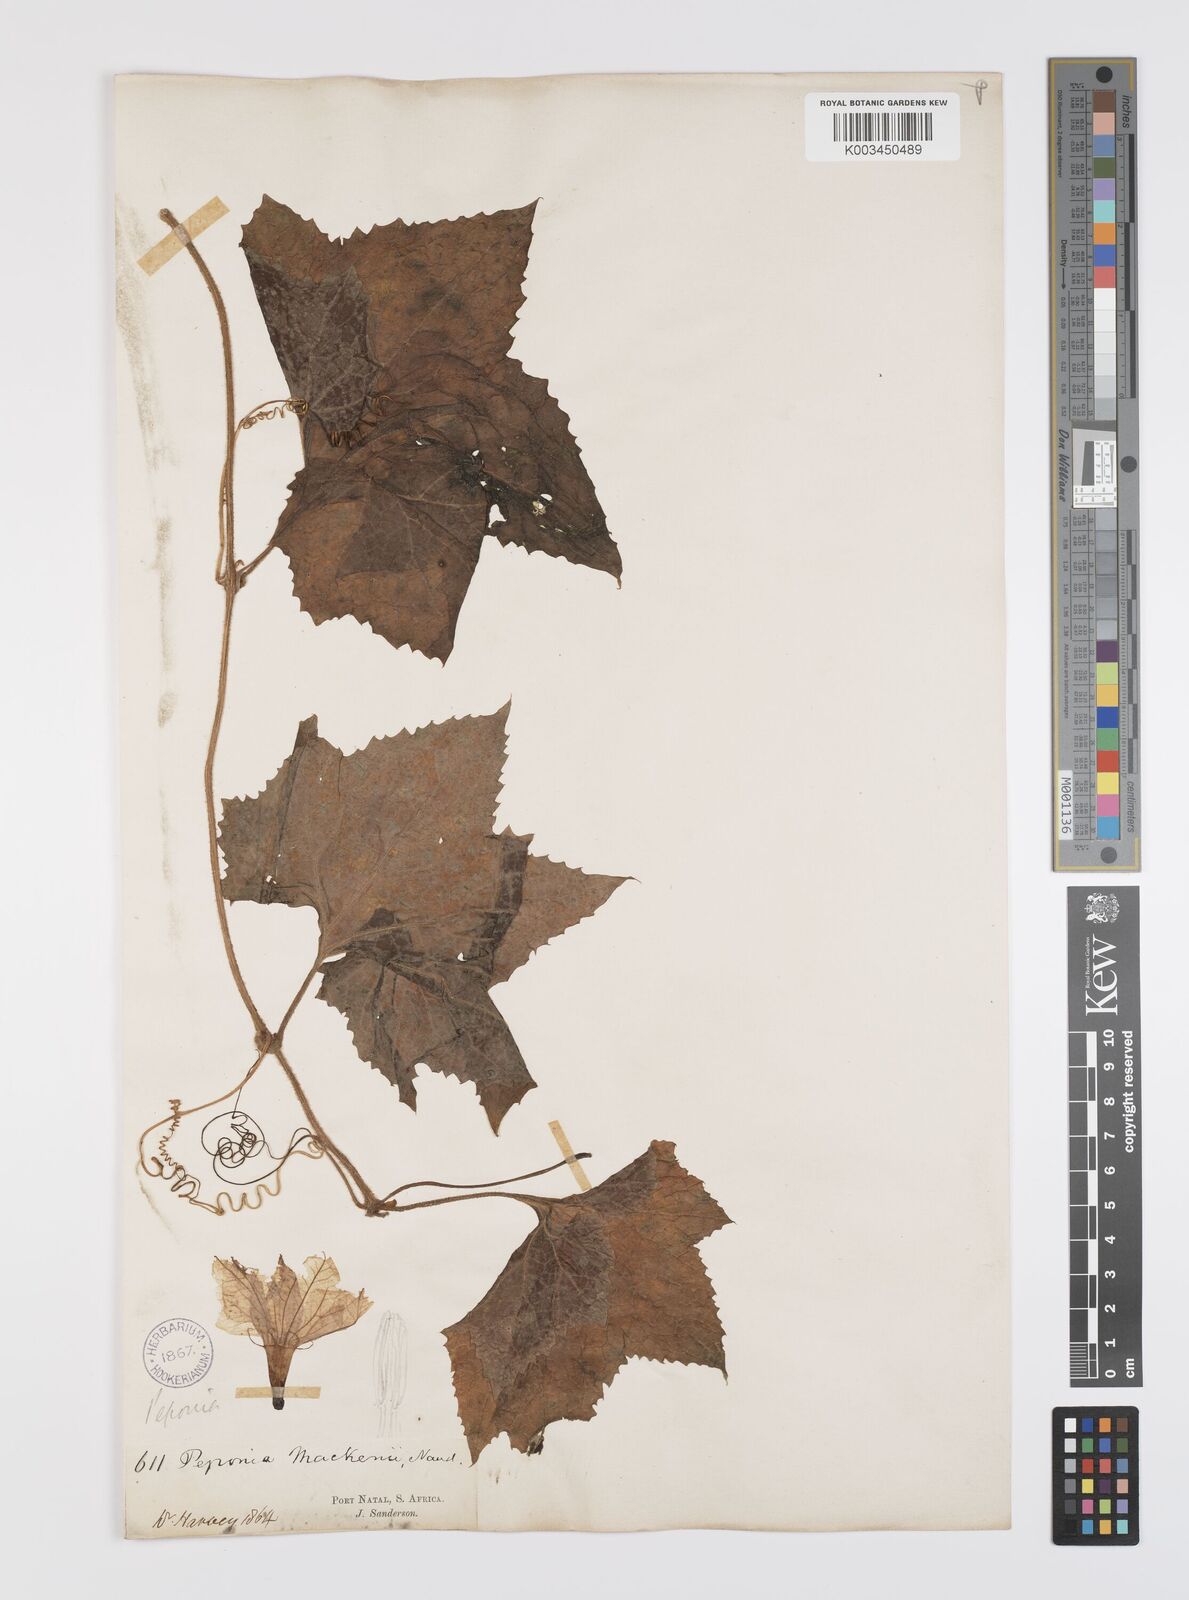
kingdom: Plantae
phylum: Tracheophyta
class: Magnoliopsida
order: Cucurbitales
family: Cucurbitaceae
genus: Peponium
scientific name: Peponium mackenii
